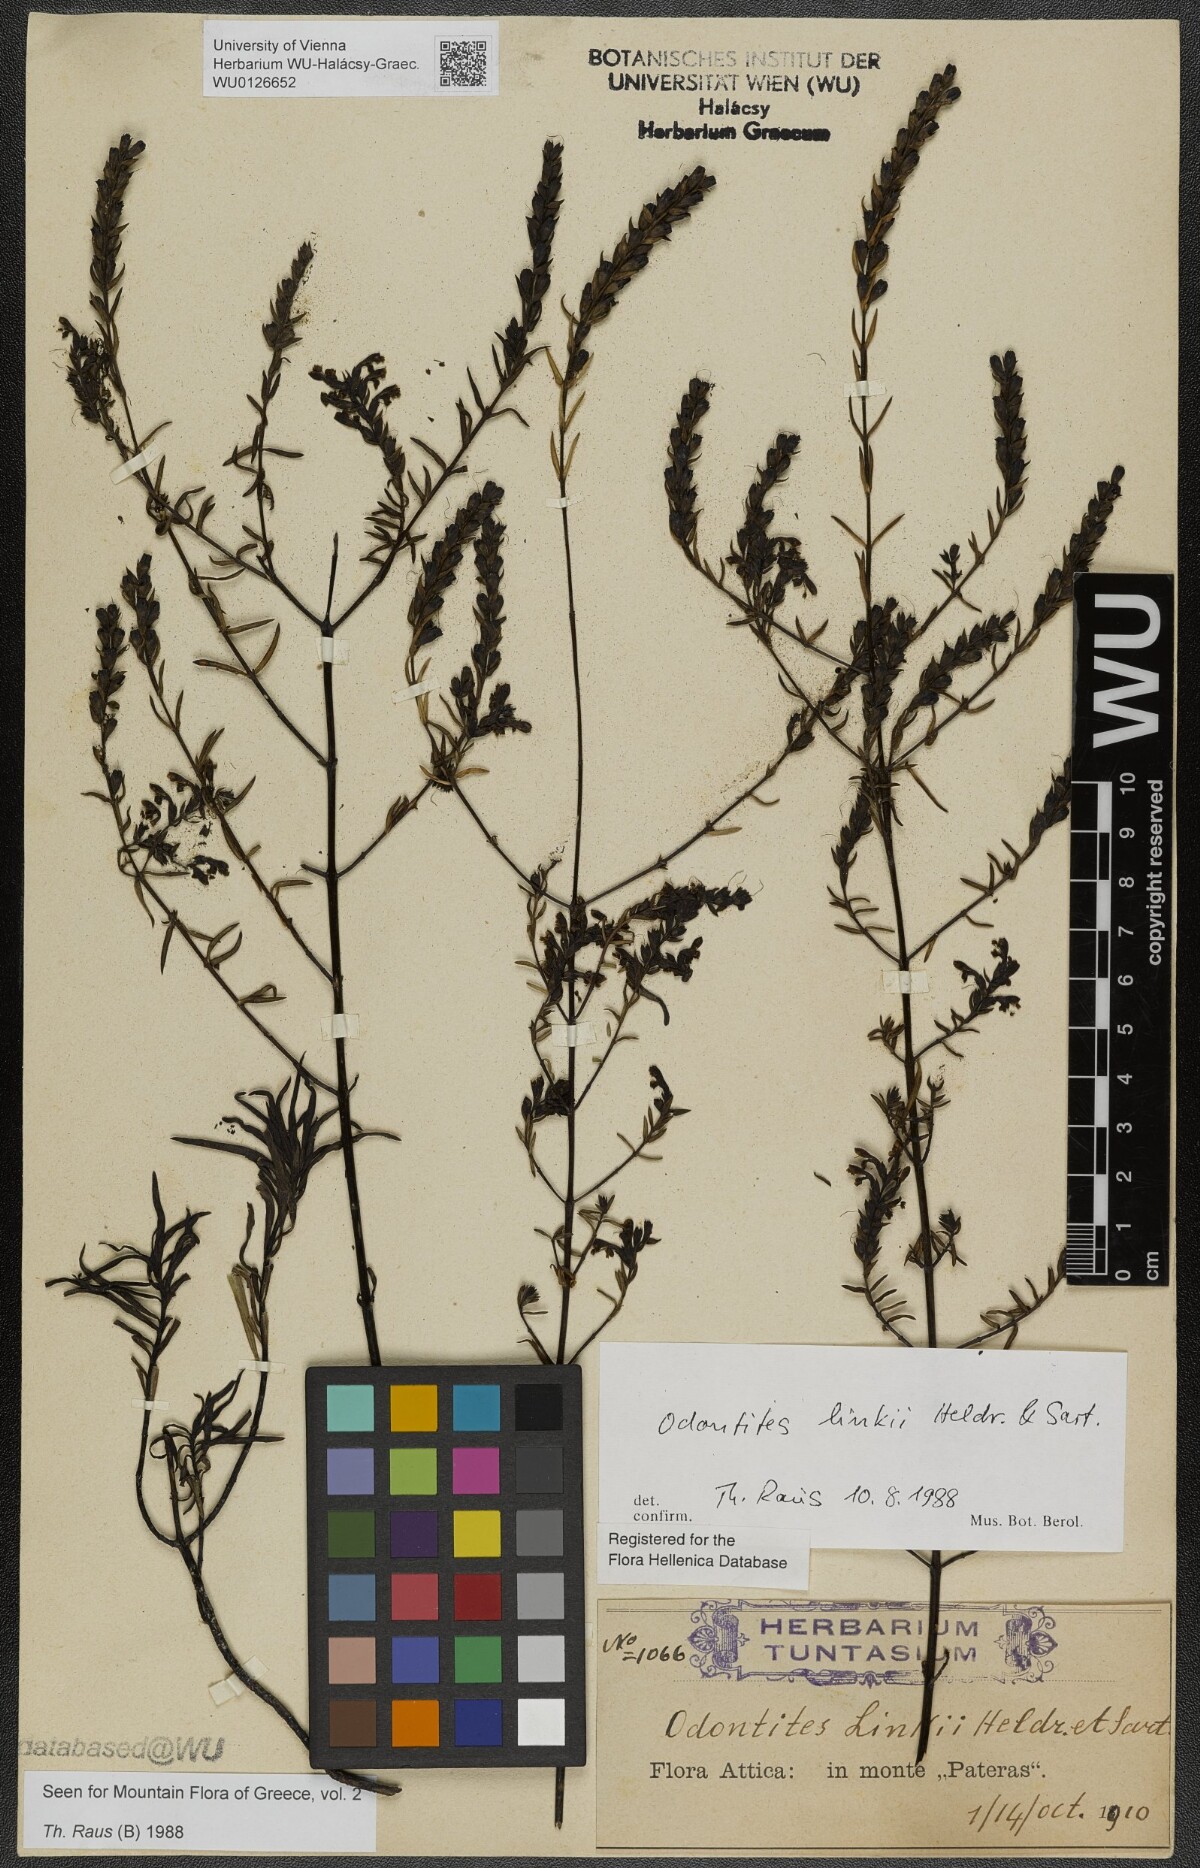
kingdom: Plantae
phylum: Tracheophyta
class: Magnoliopsida
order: Lamiales
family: Scrophulariaceae
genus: Odontites
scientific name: Odontites linkii
